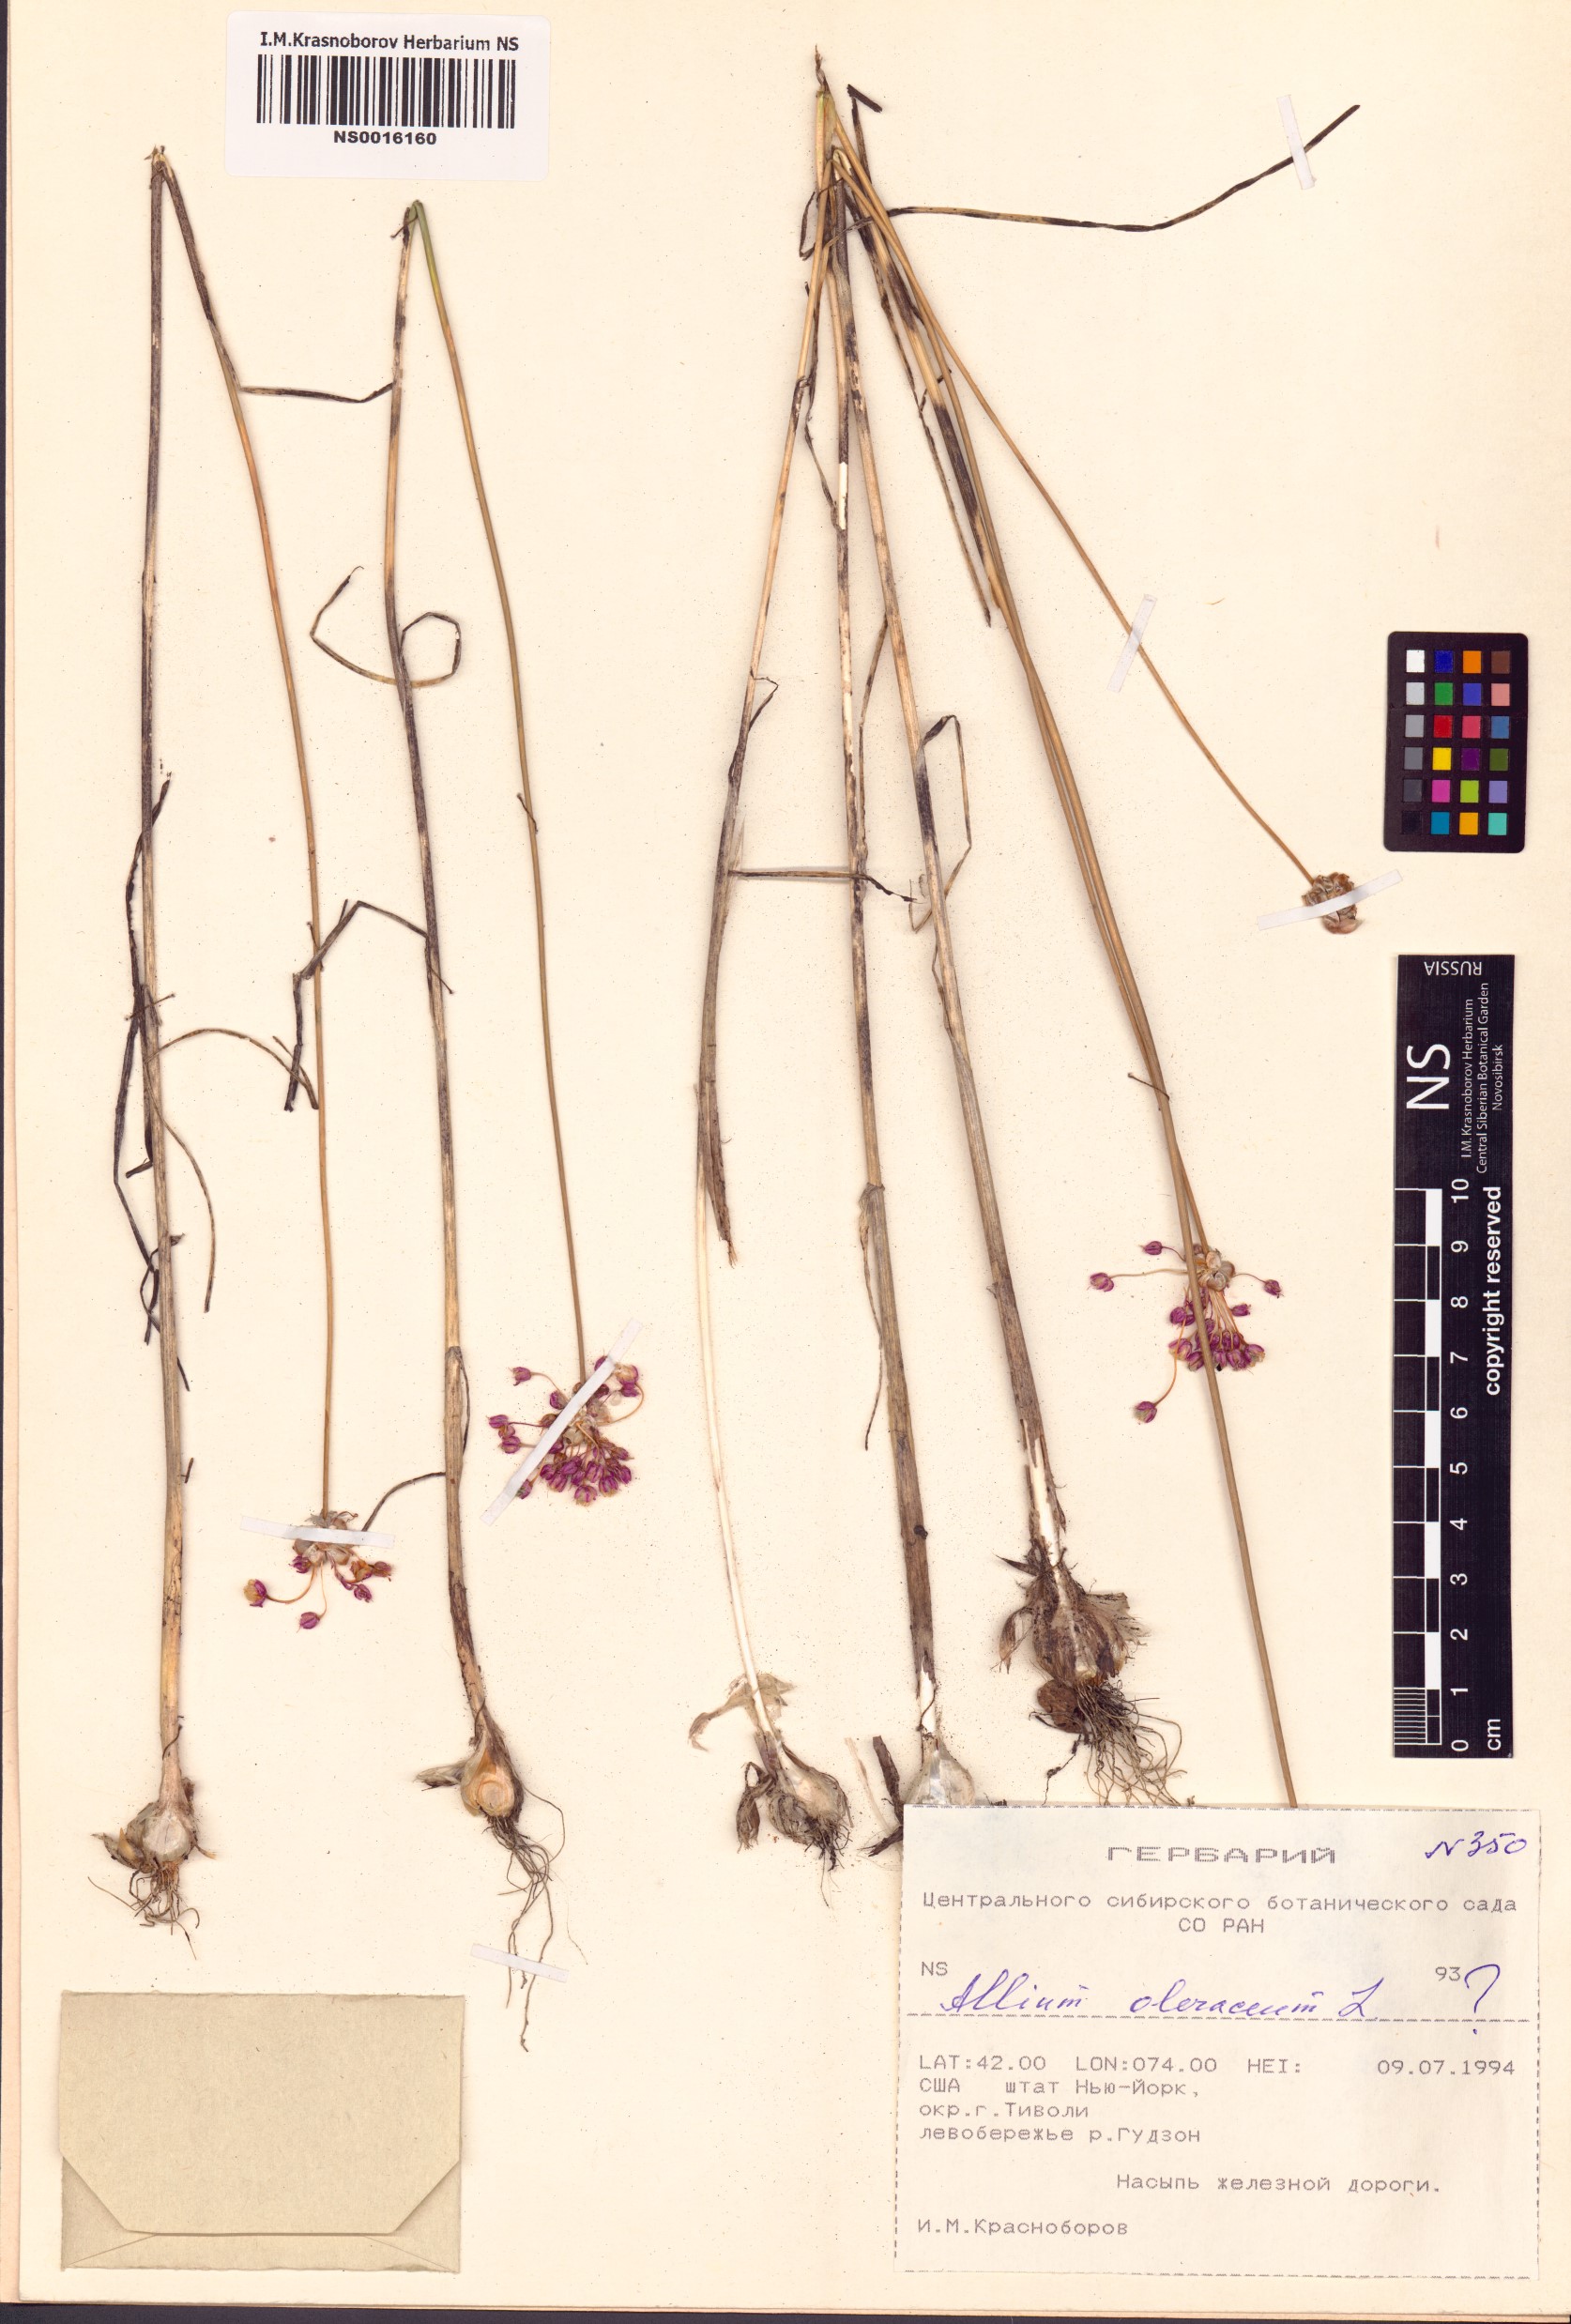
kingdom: Plantae
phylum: Tracheophyta
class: Liliopsida
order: Asparagales
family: Amaryllidaceae
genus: Allium
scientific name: Allium oleraceum
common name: Field garlic
